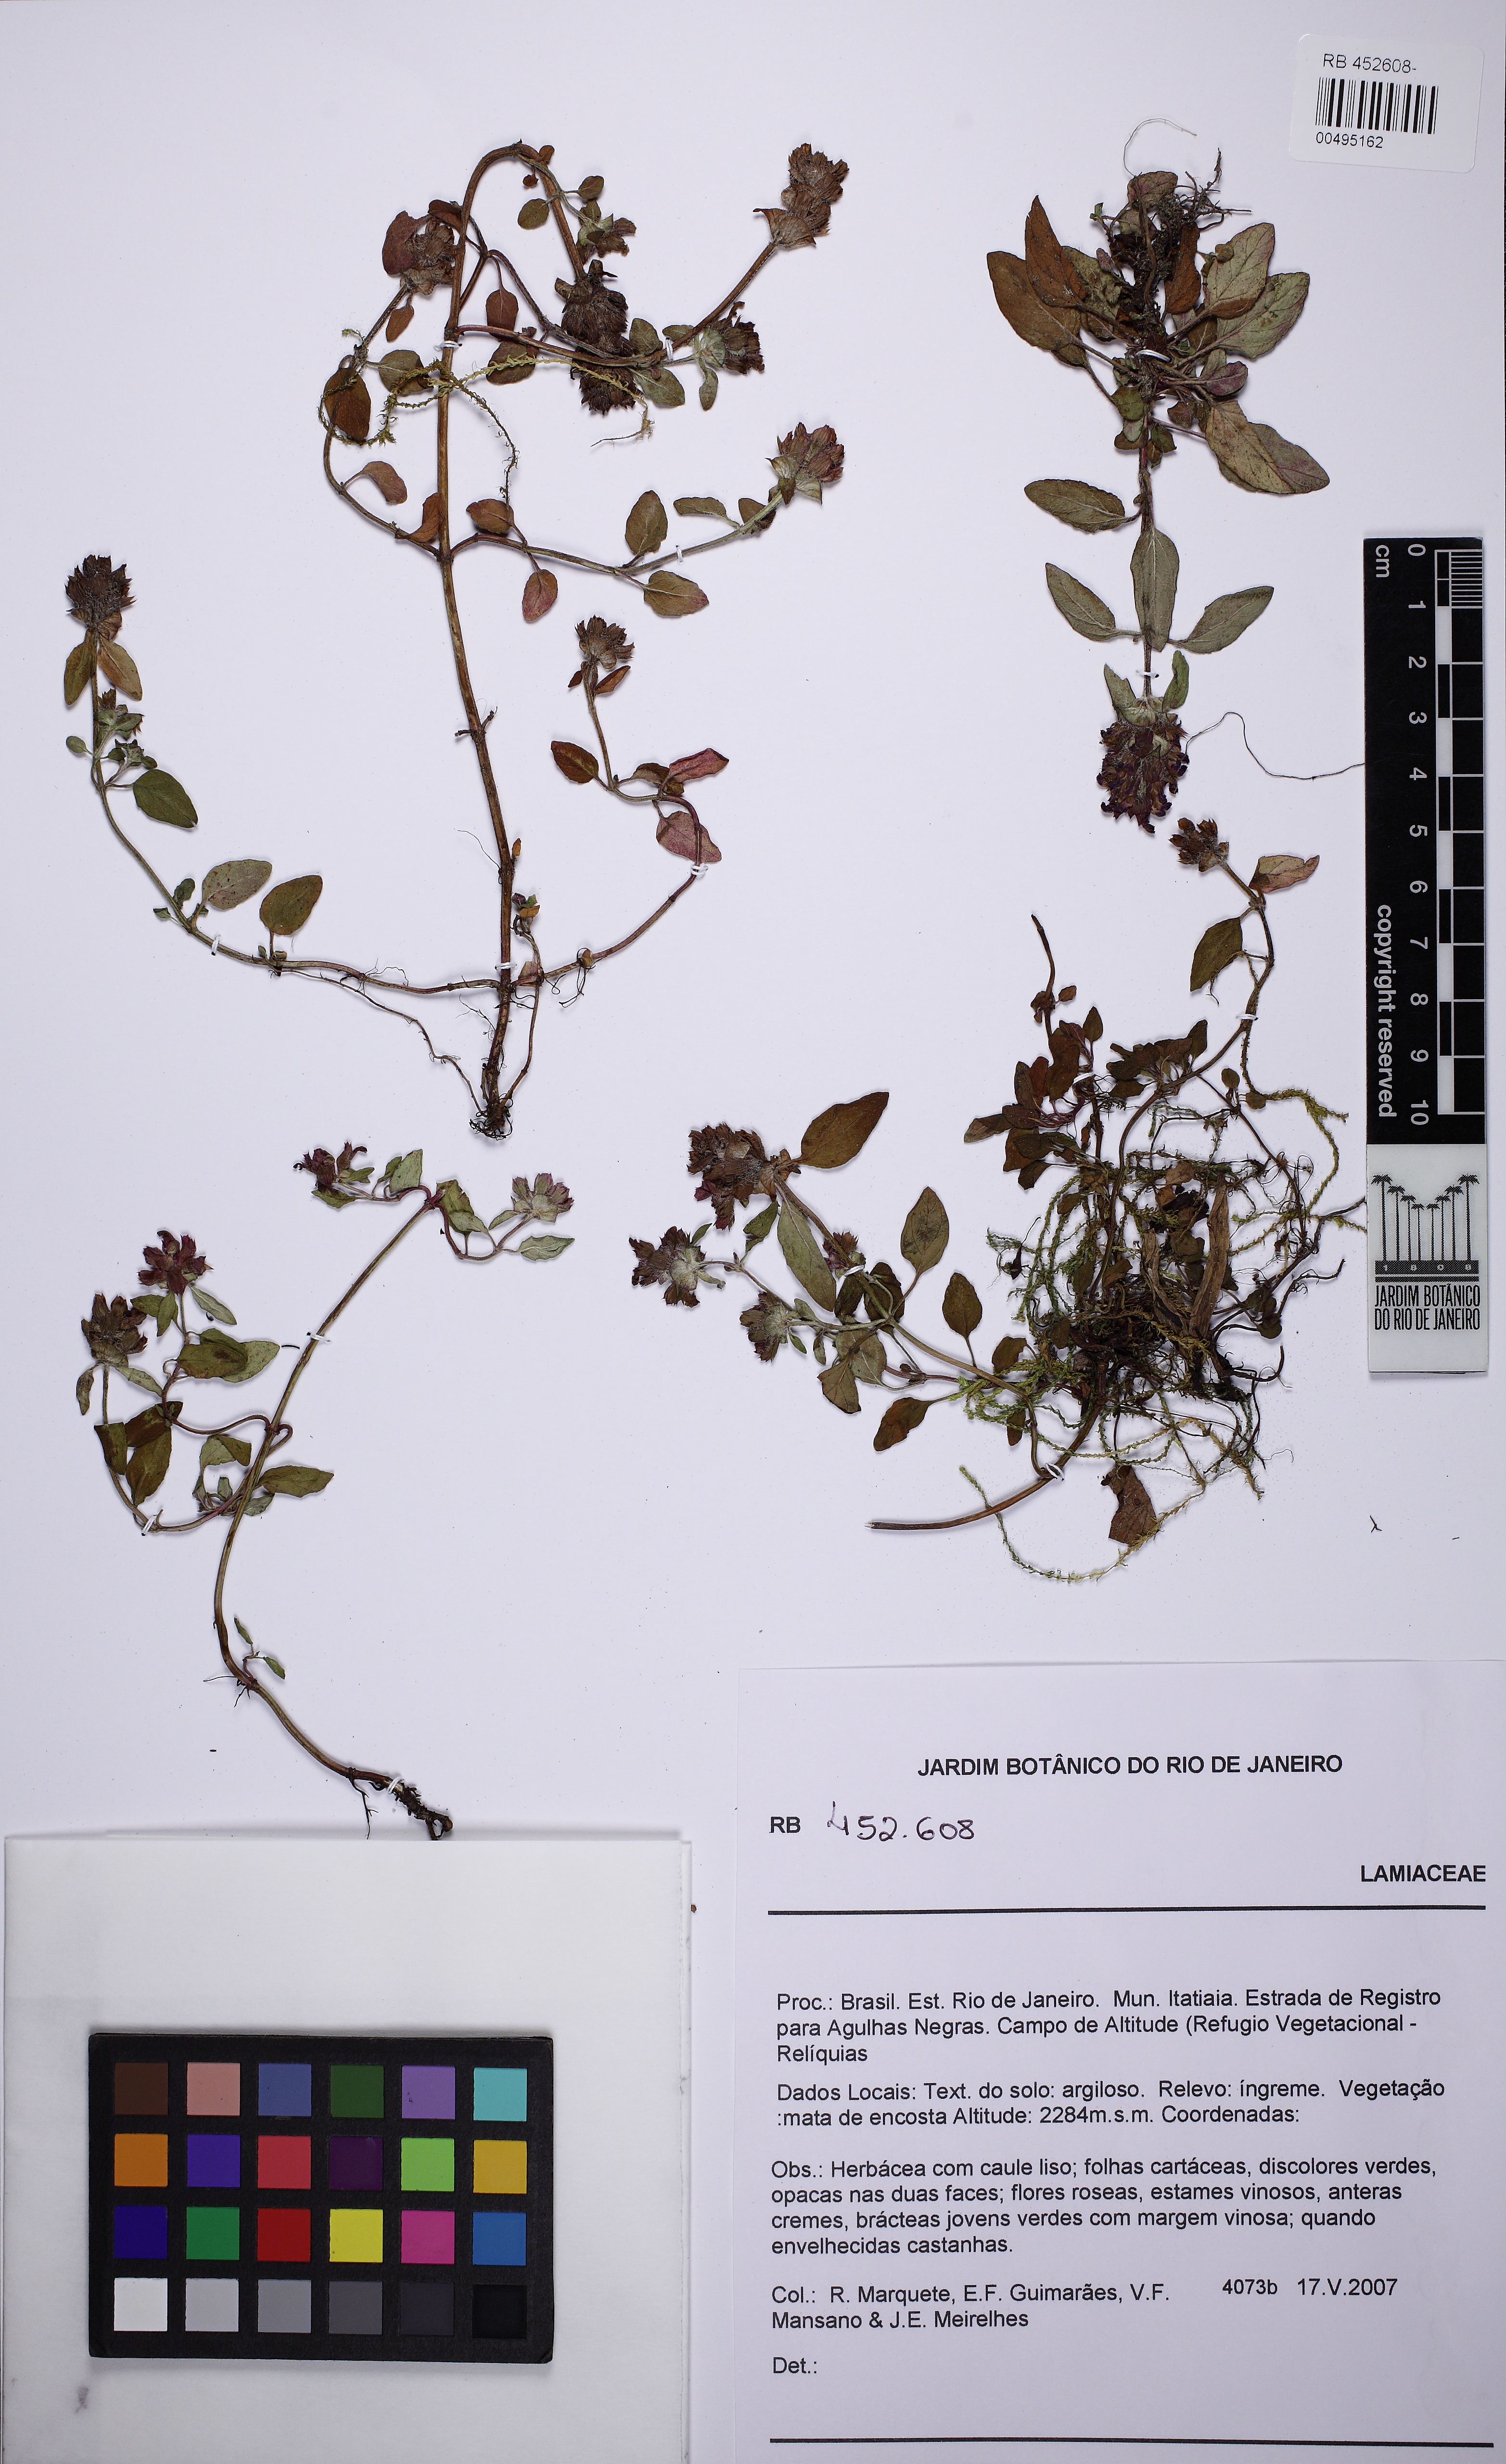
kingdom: Plantae
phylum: Tracheophyta
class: Magnoliopsida
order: Lamiales
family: Lamiaceae
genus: Prunella
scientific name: Prunella vulgaris
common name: Heal-all
